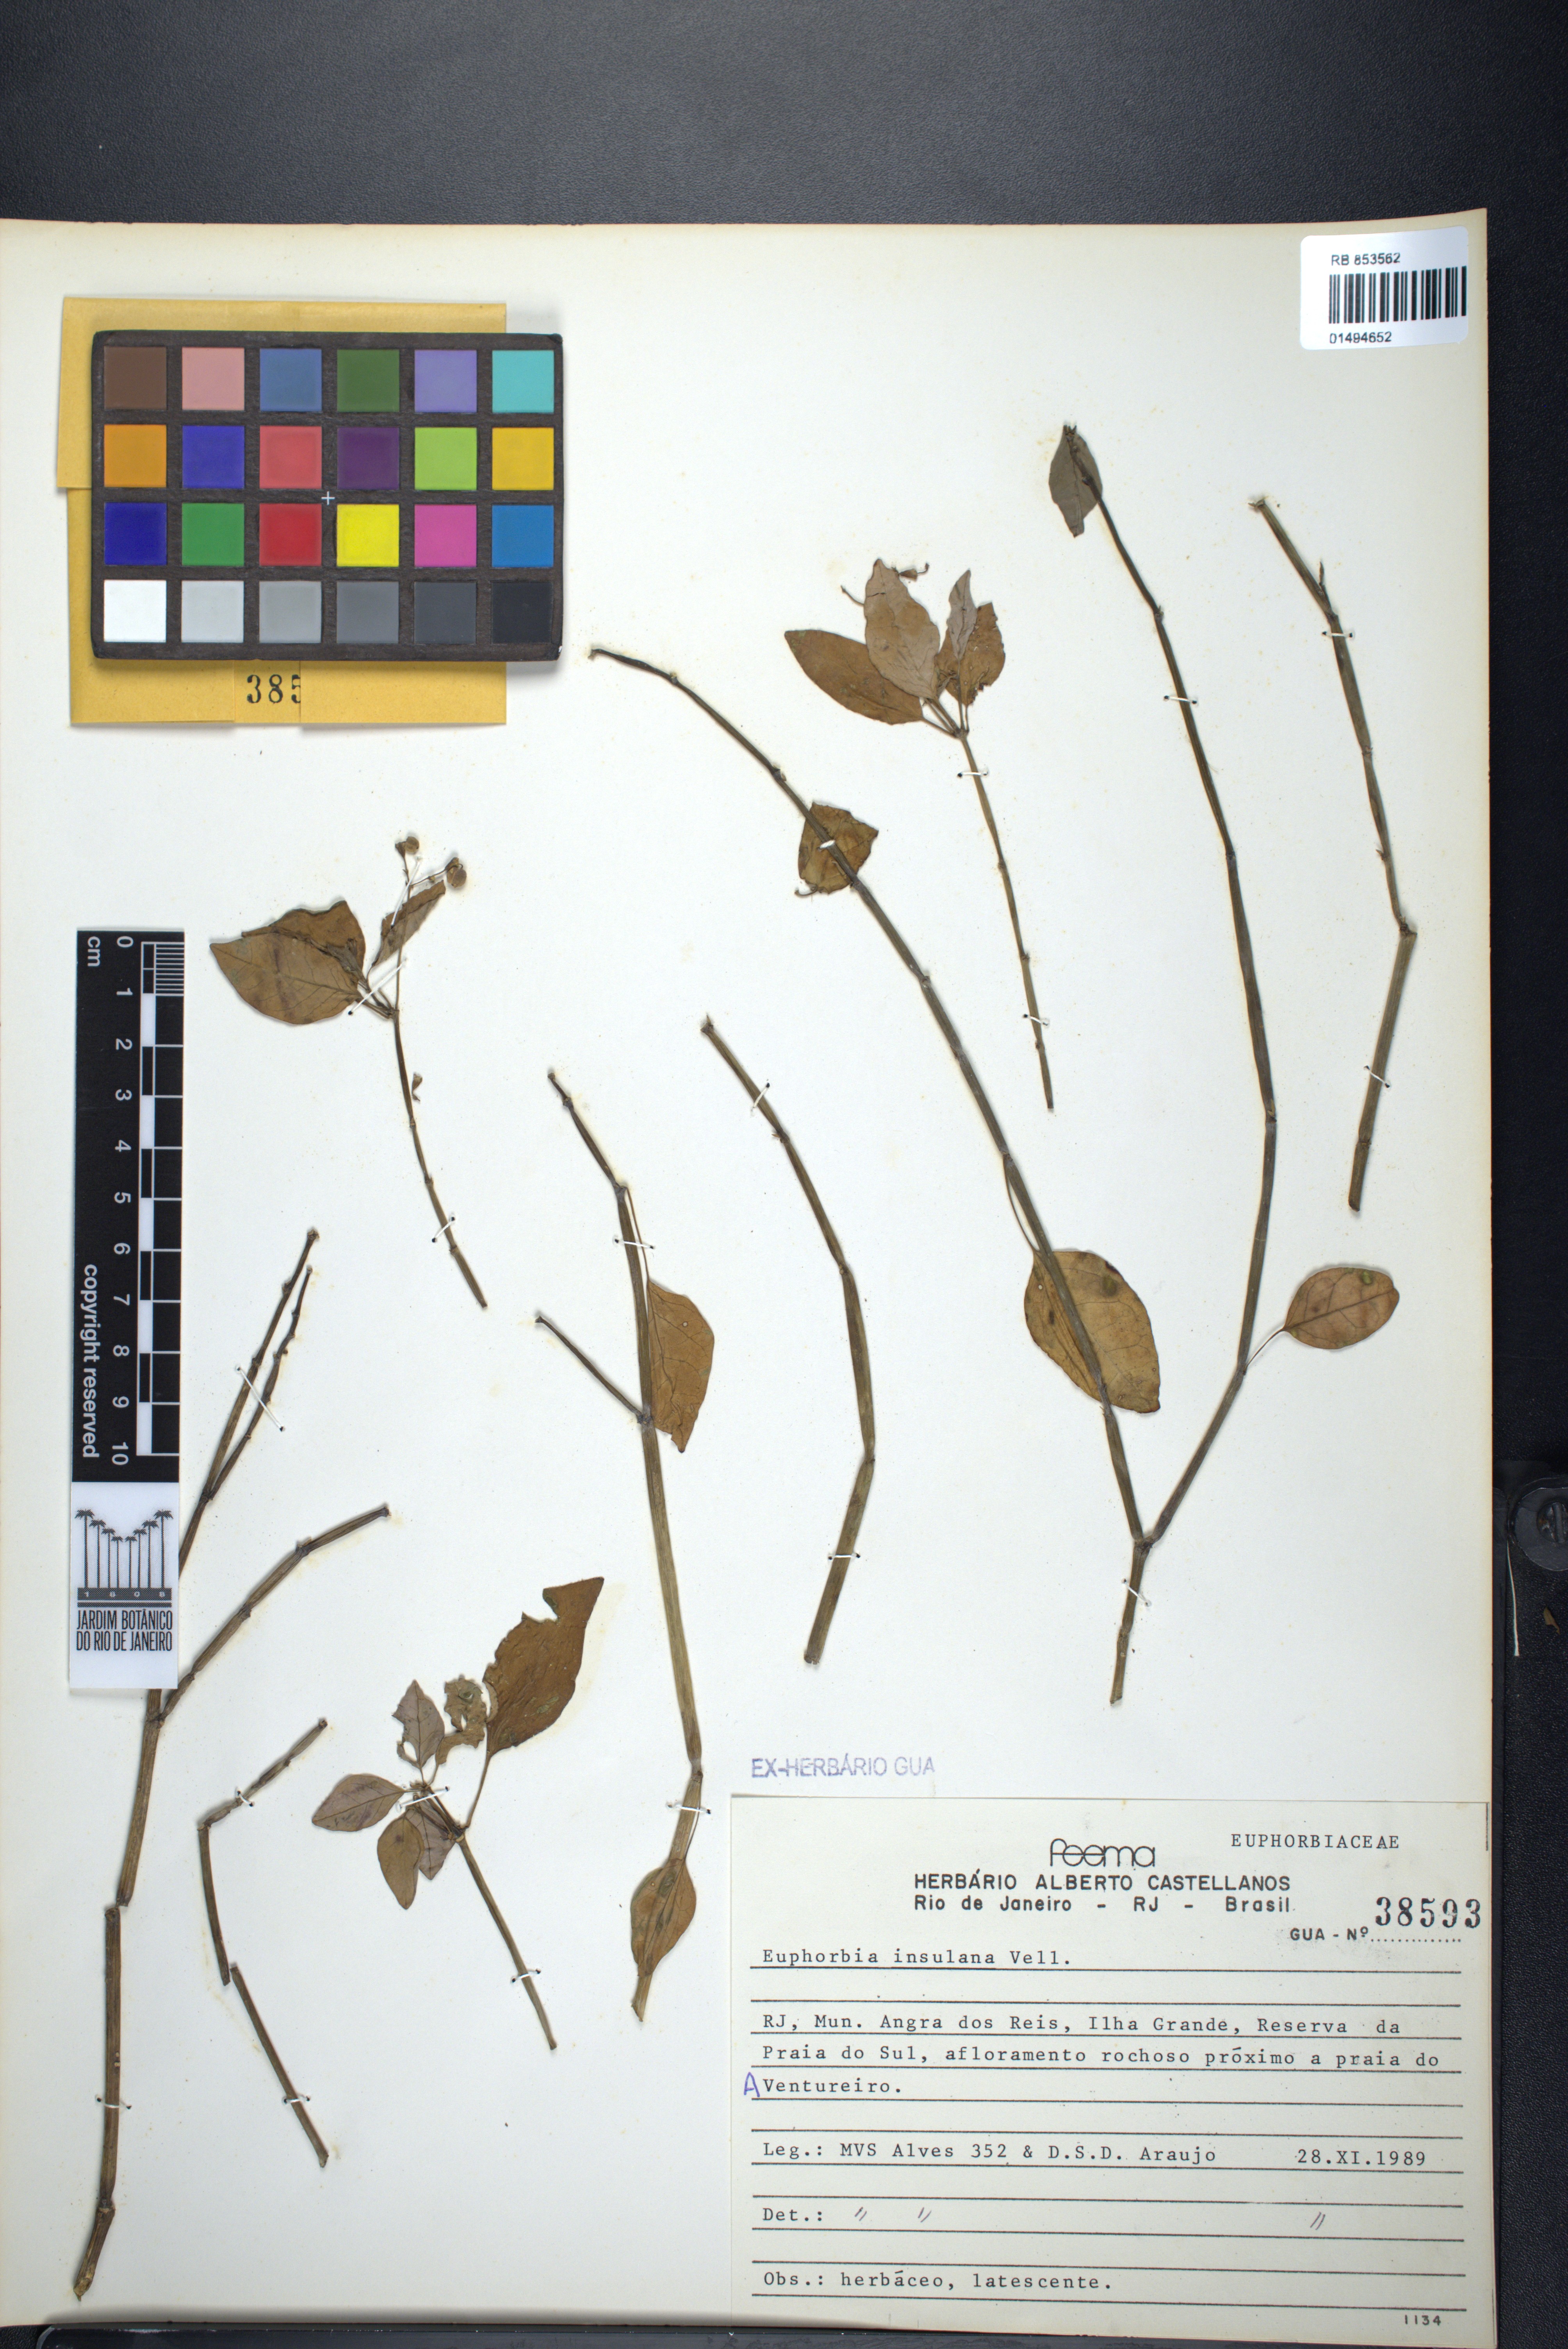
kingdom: Plantae
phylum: Tracheophyta
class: Magnoliopsida
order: Malpighiales
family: Euphorbiaceae
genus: Euphorbia
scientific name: Euphorbia insulana
